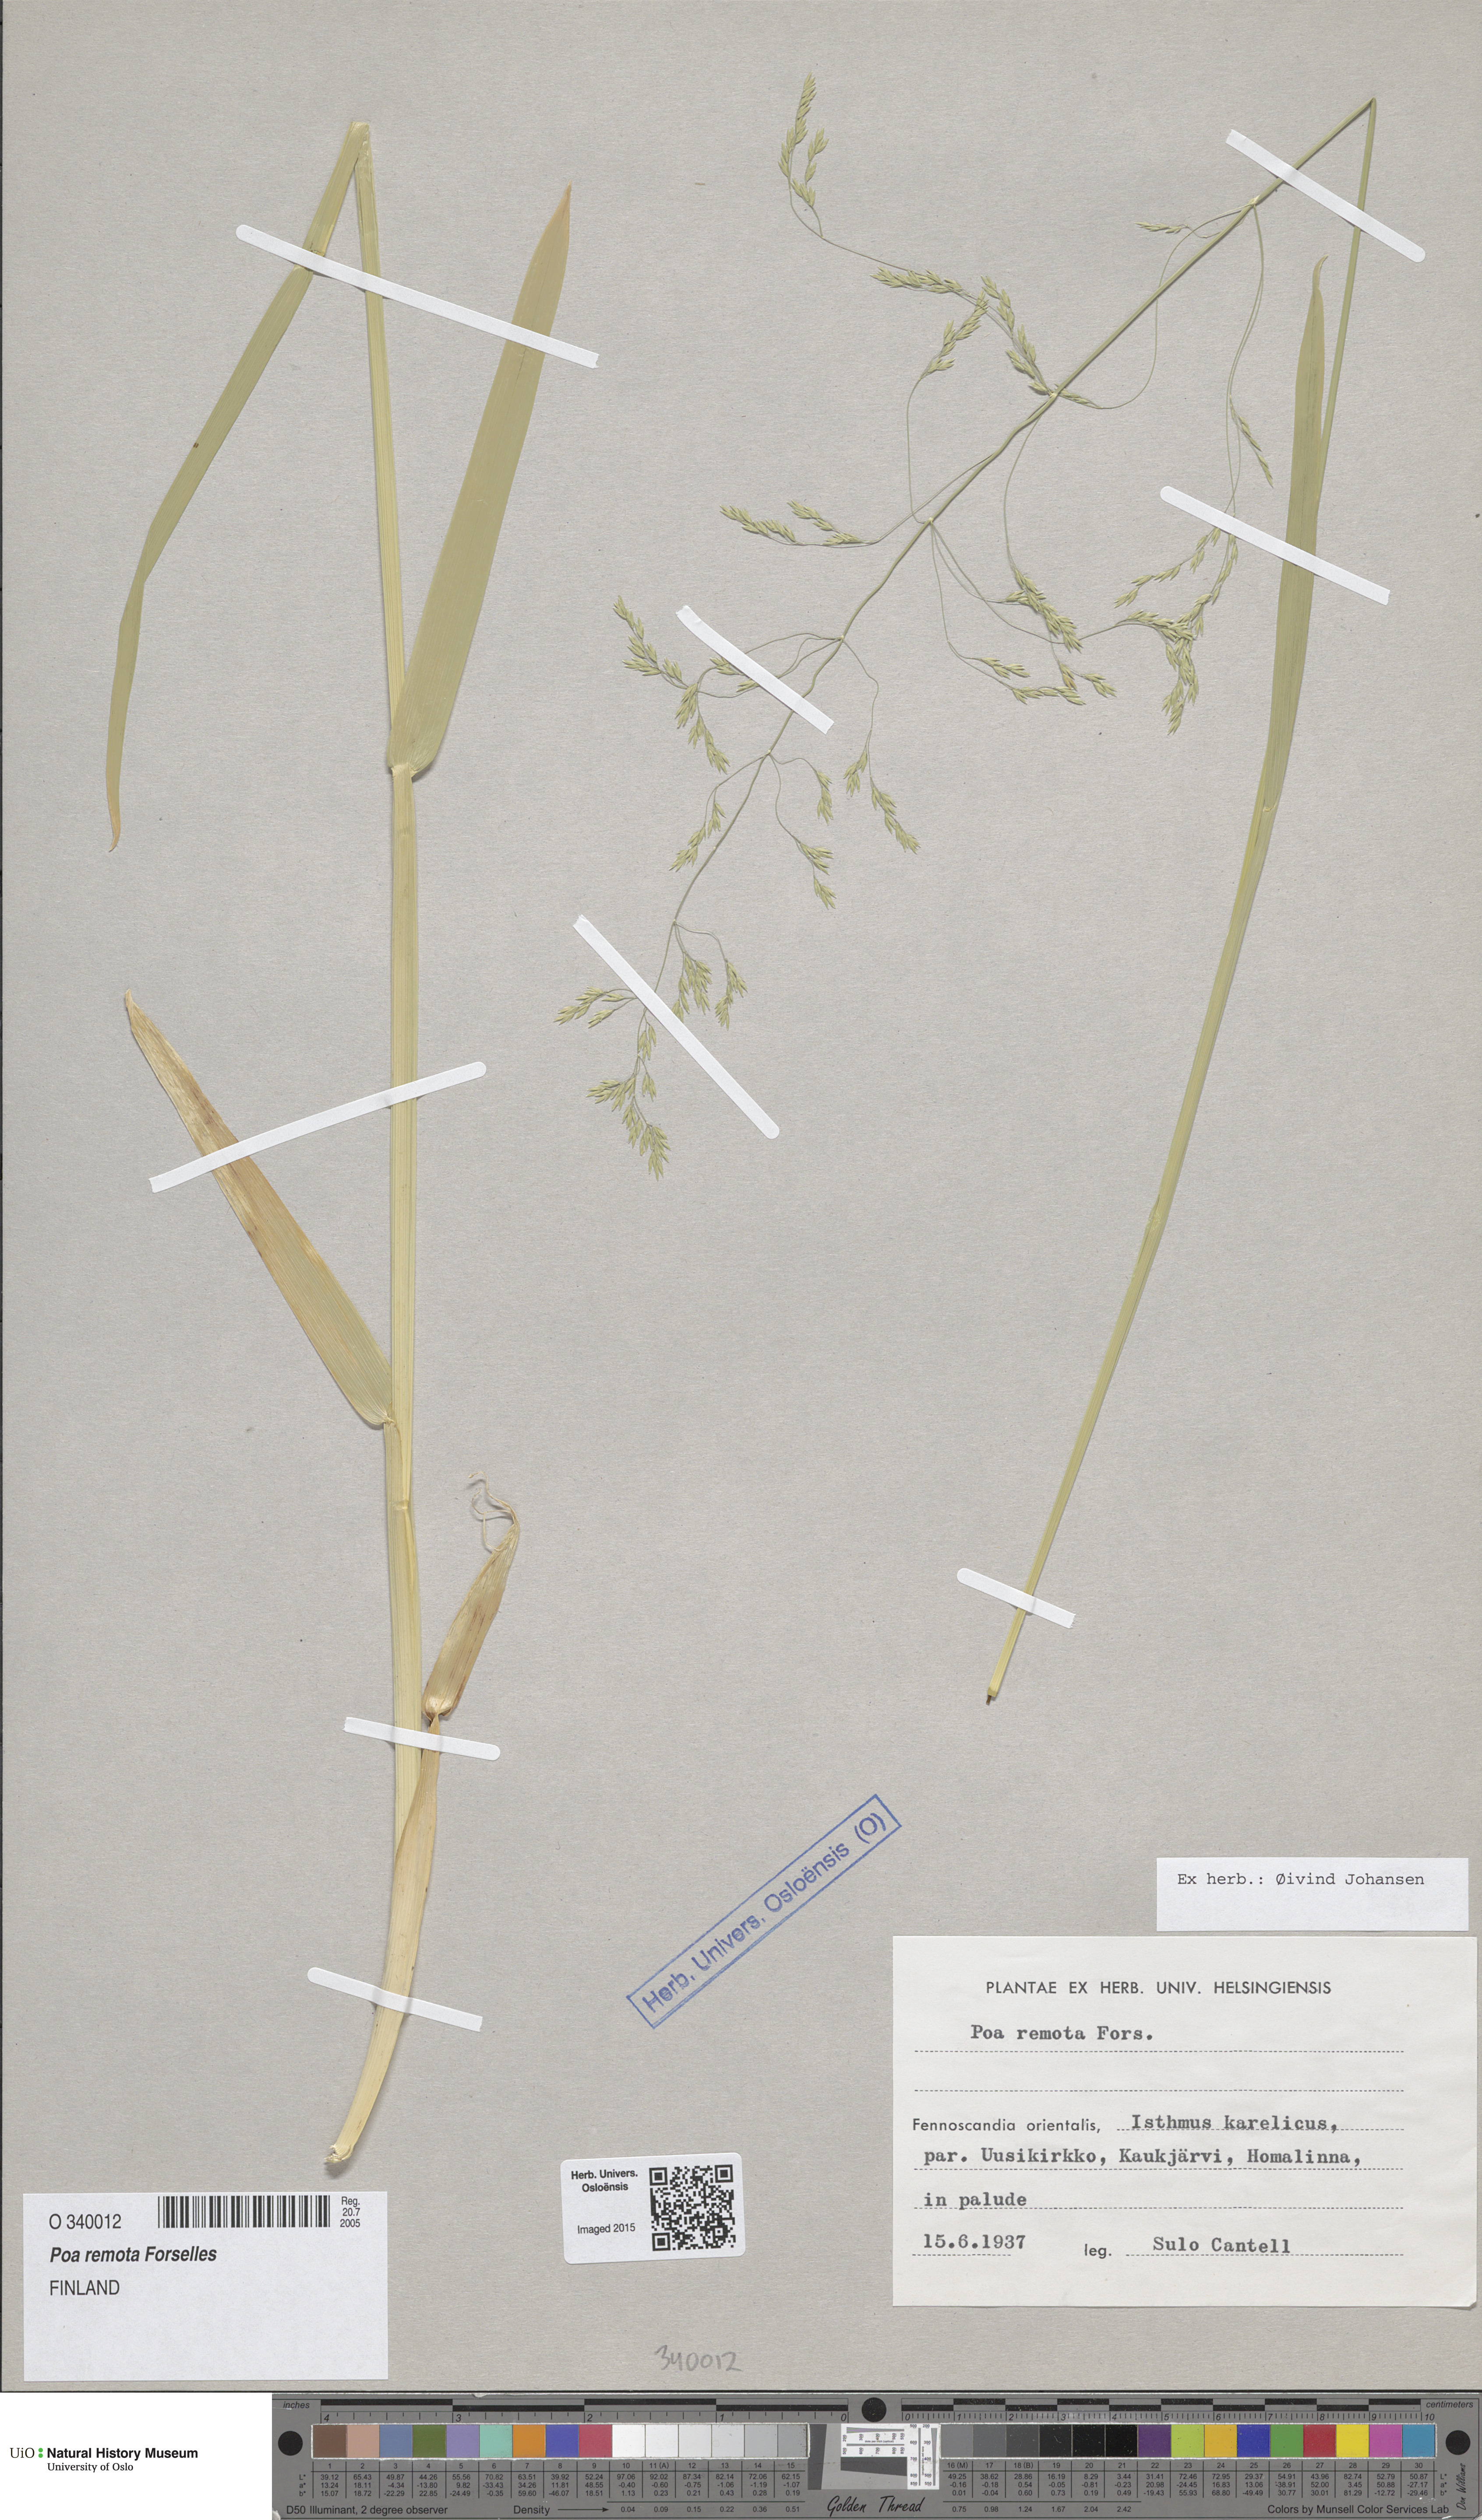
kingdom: Plantae
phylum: Tracheophyta
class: Liliopsida
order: Poales
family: Poaceae
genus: Poa
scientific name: Poa remota
